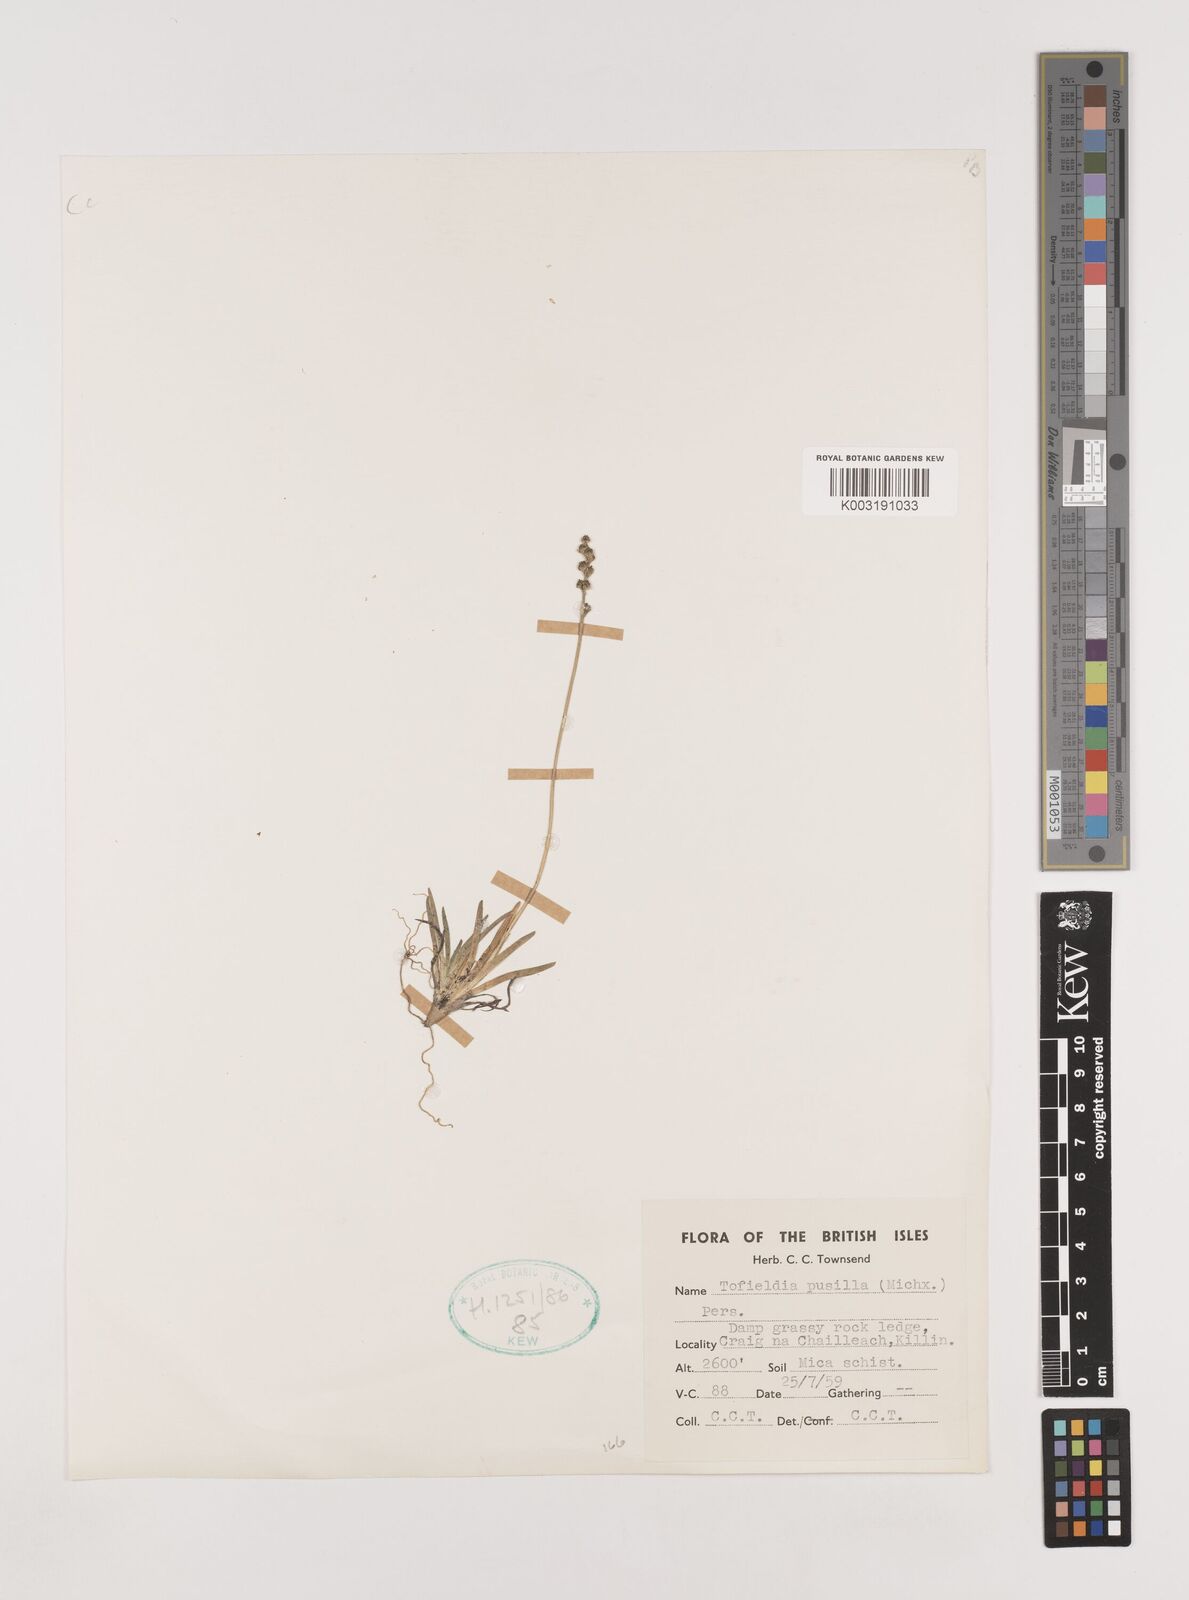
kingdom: Plantae
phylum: Tracheophyta
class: Liliopsida
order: Alismatales
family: Tofieldiaceae
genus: Tofieldia
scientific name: Tofieldia pusilla
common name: Scottish false asphodel
